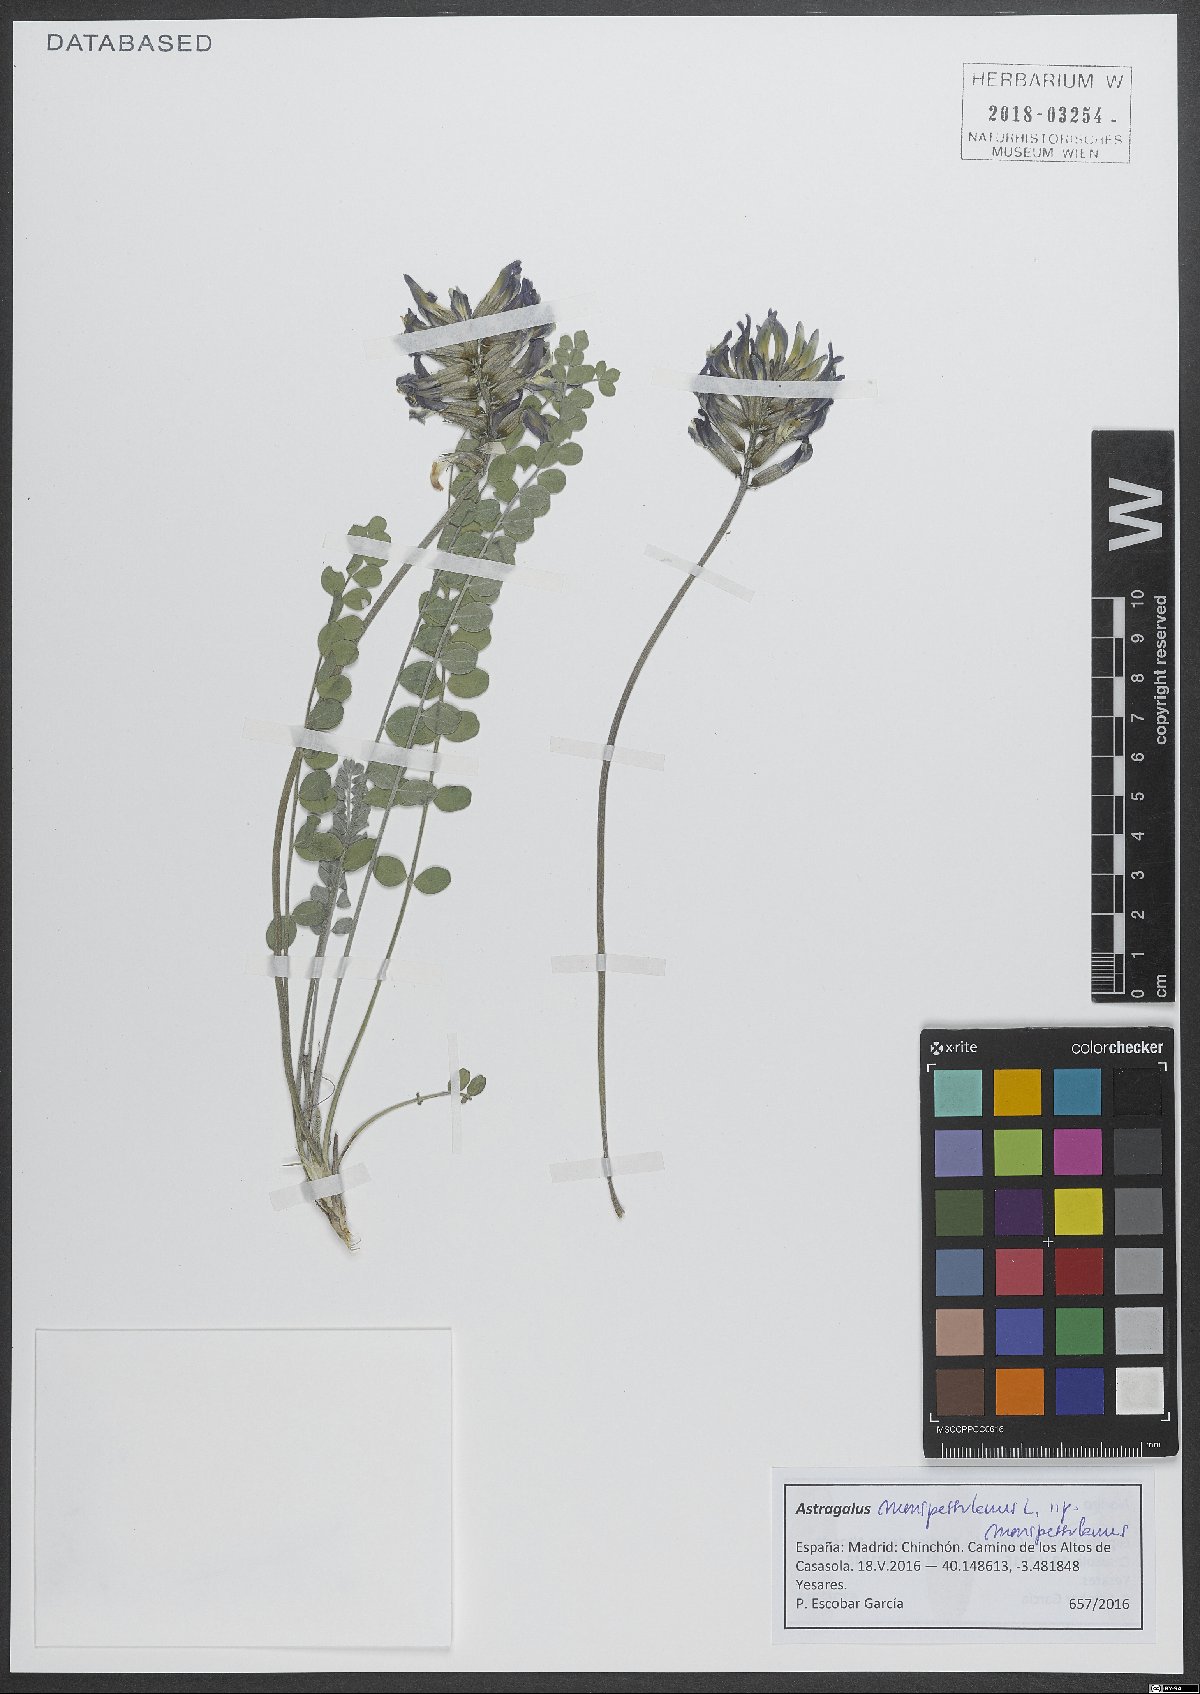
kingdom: Plantae
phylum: Tracheophyta
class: Magnoliopsida
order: Fabales
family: Fabaceae
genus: Astragalus
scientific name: Astragalus monspessulanus
